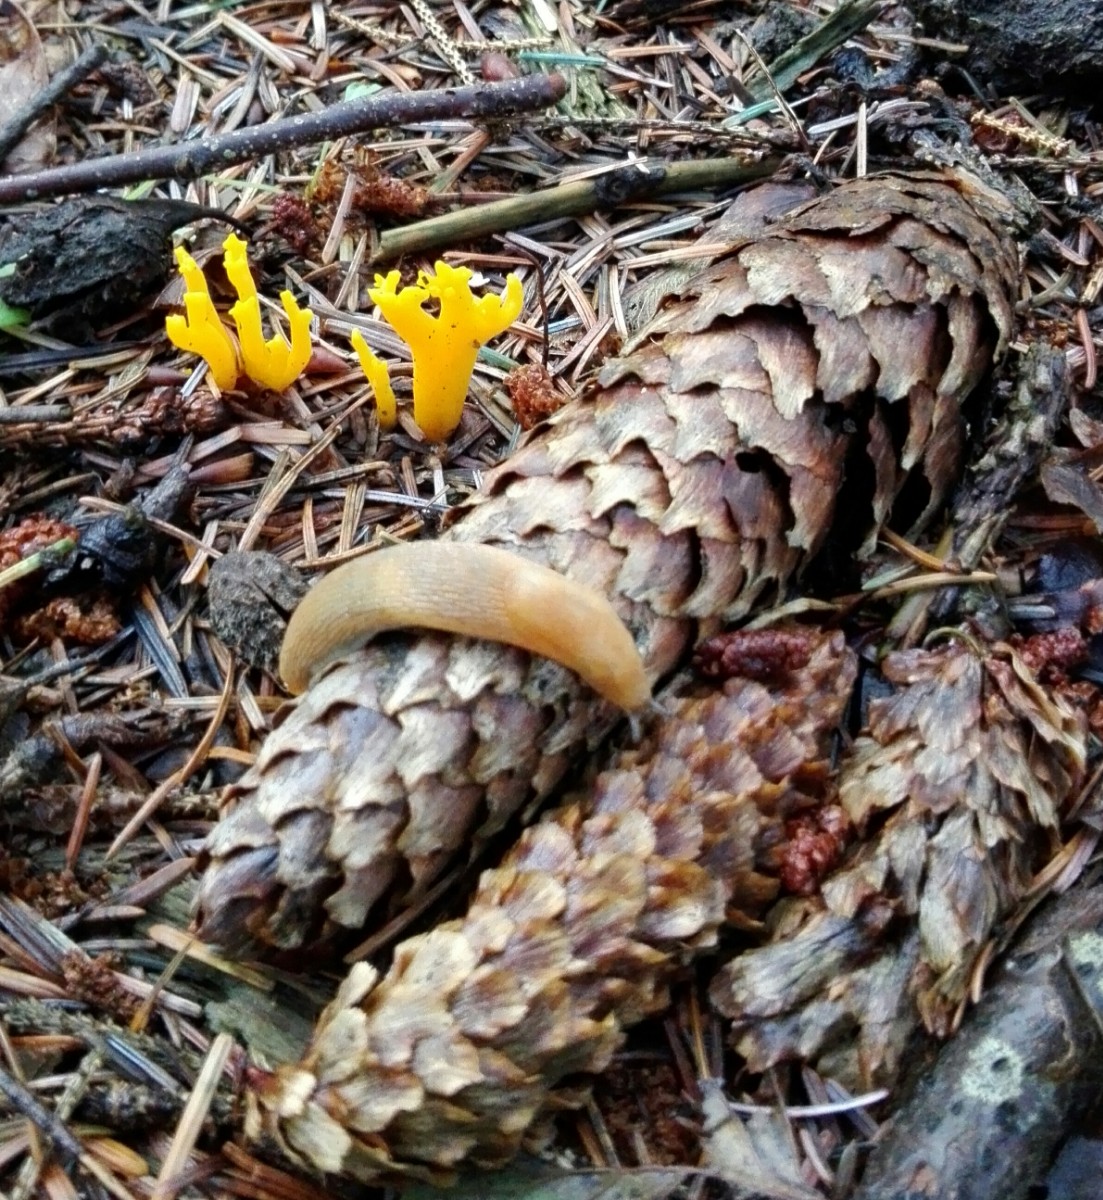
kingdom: Fungi
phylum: Basidiomycota
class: Dacrymycetes
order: Dacrymycetales
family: Dacrymycetaceae
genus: Calocera
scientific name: Calocera viscosa
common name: almindelig guldgaffel
